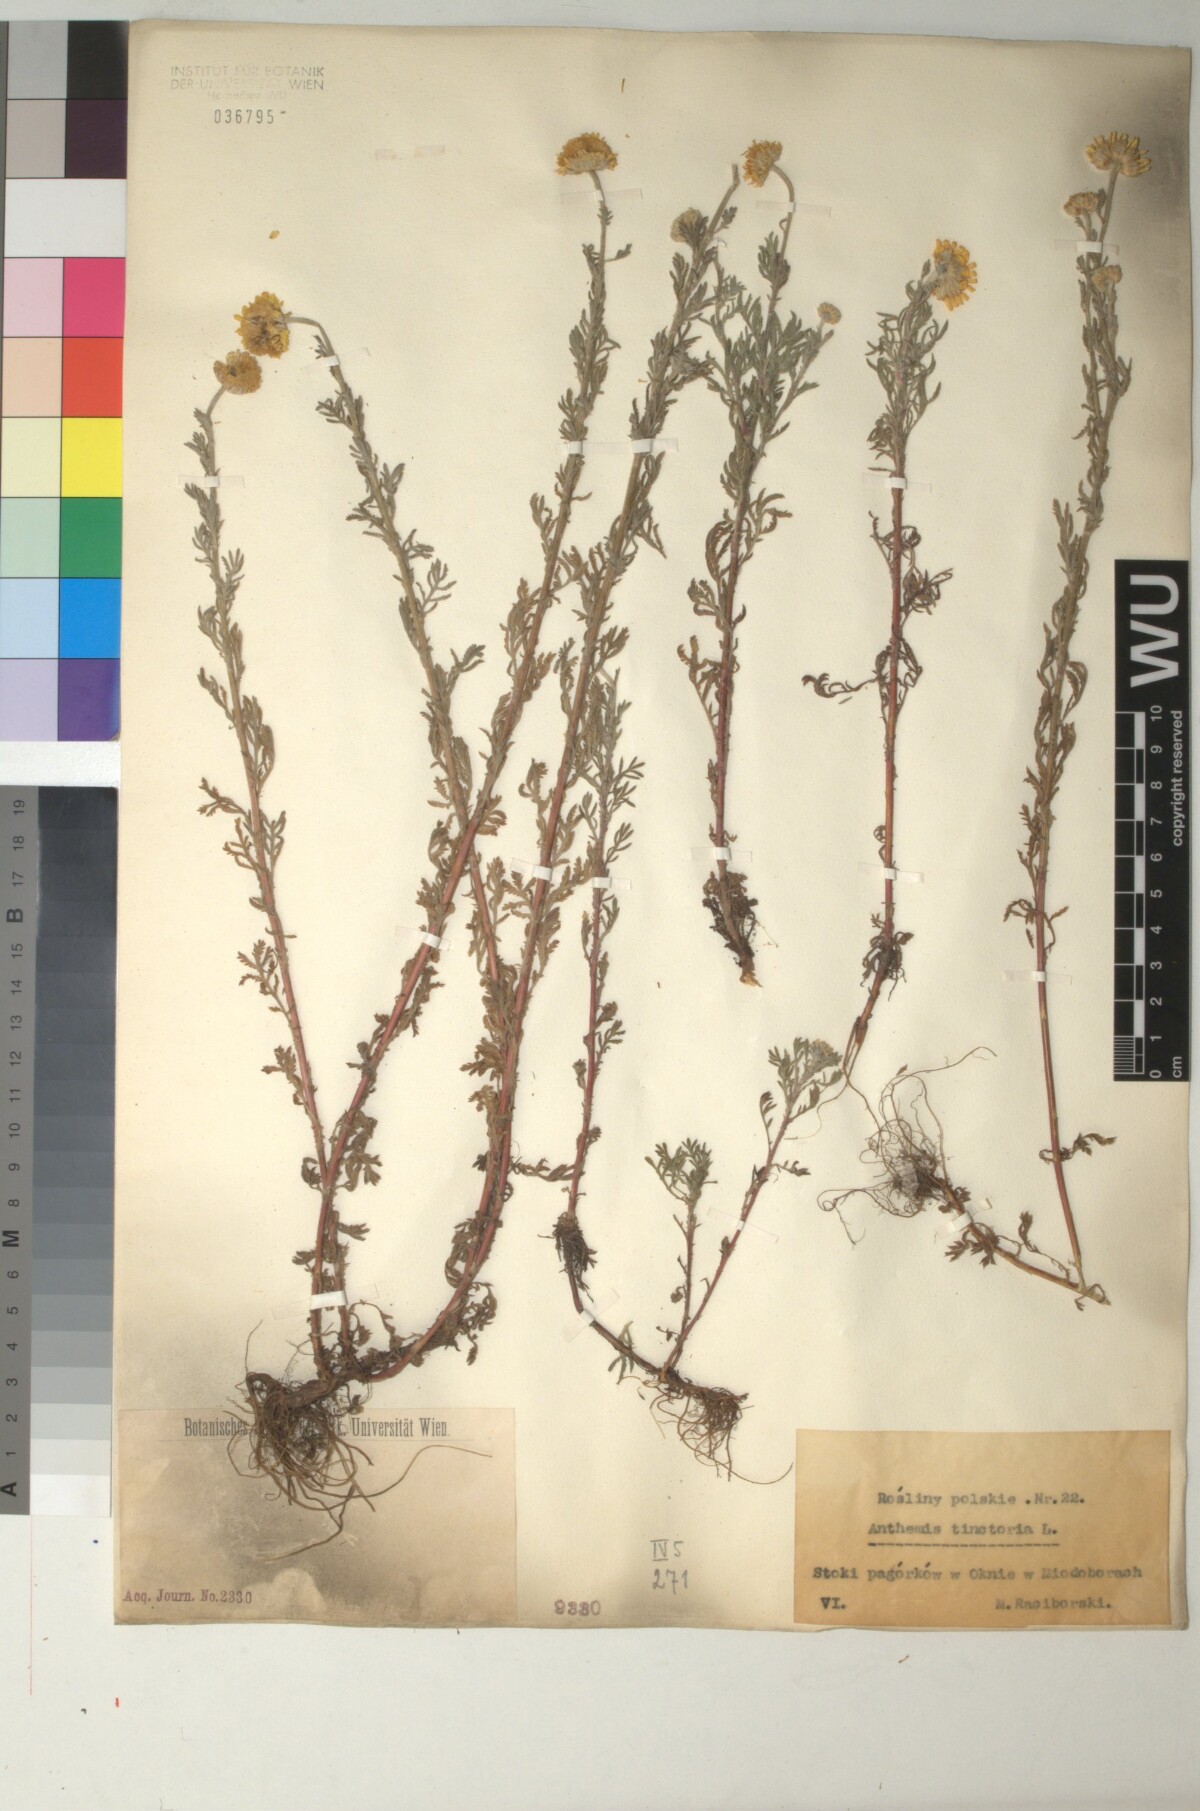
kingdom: Plantae
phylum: Tracheophyta
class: Magnoliopsida
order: Asterales
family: Asteraceae
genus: Cota
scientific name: Cota tinctoria
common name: Golden chamomile
